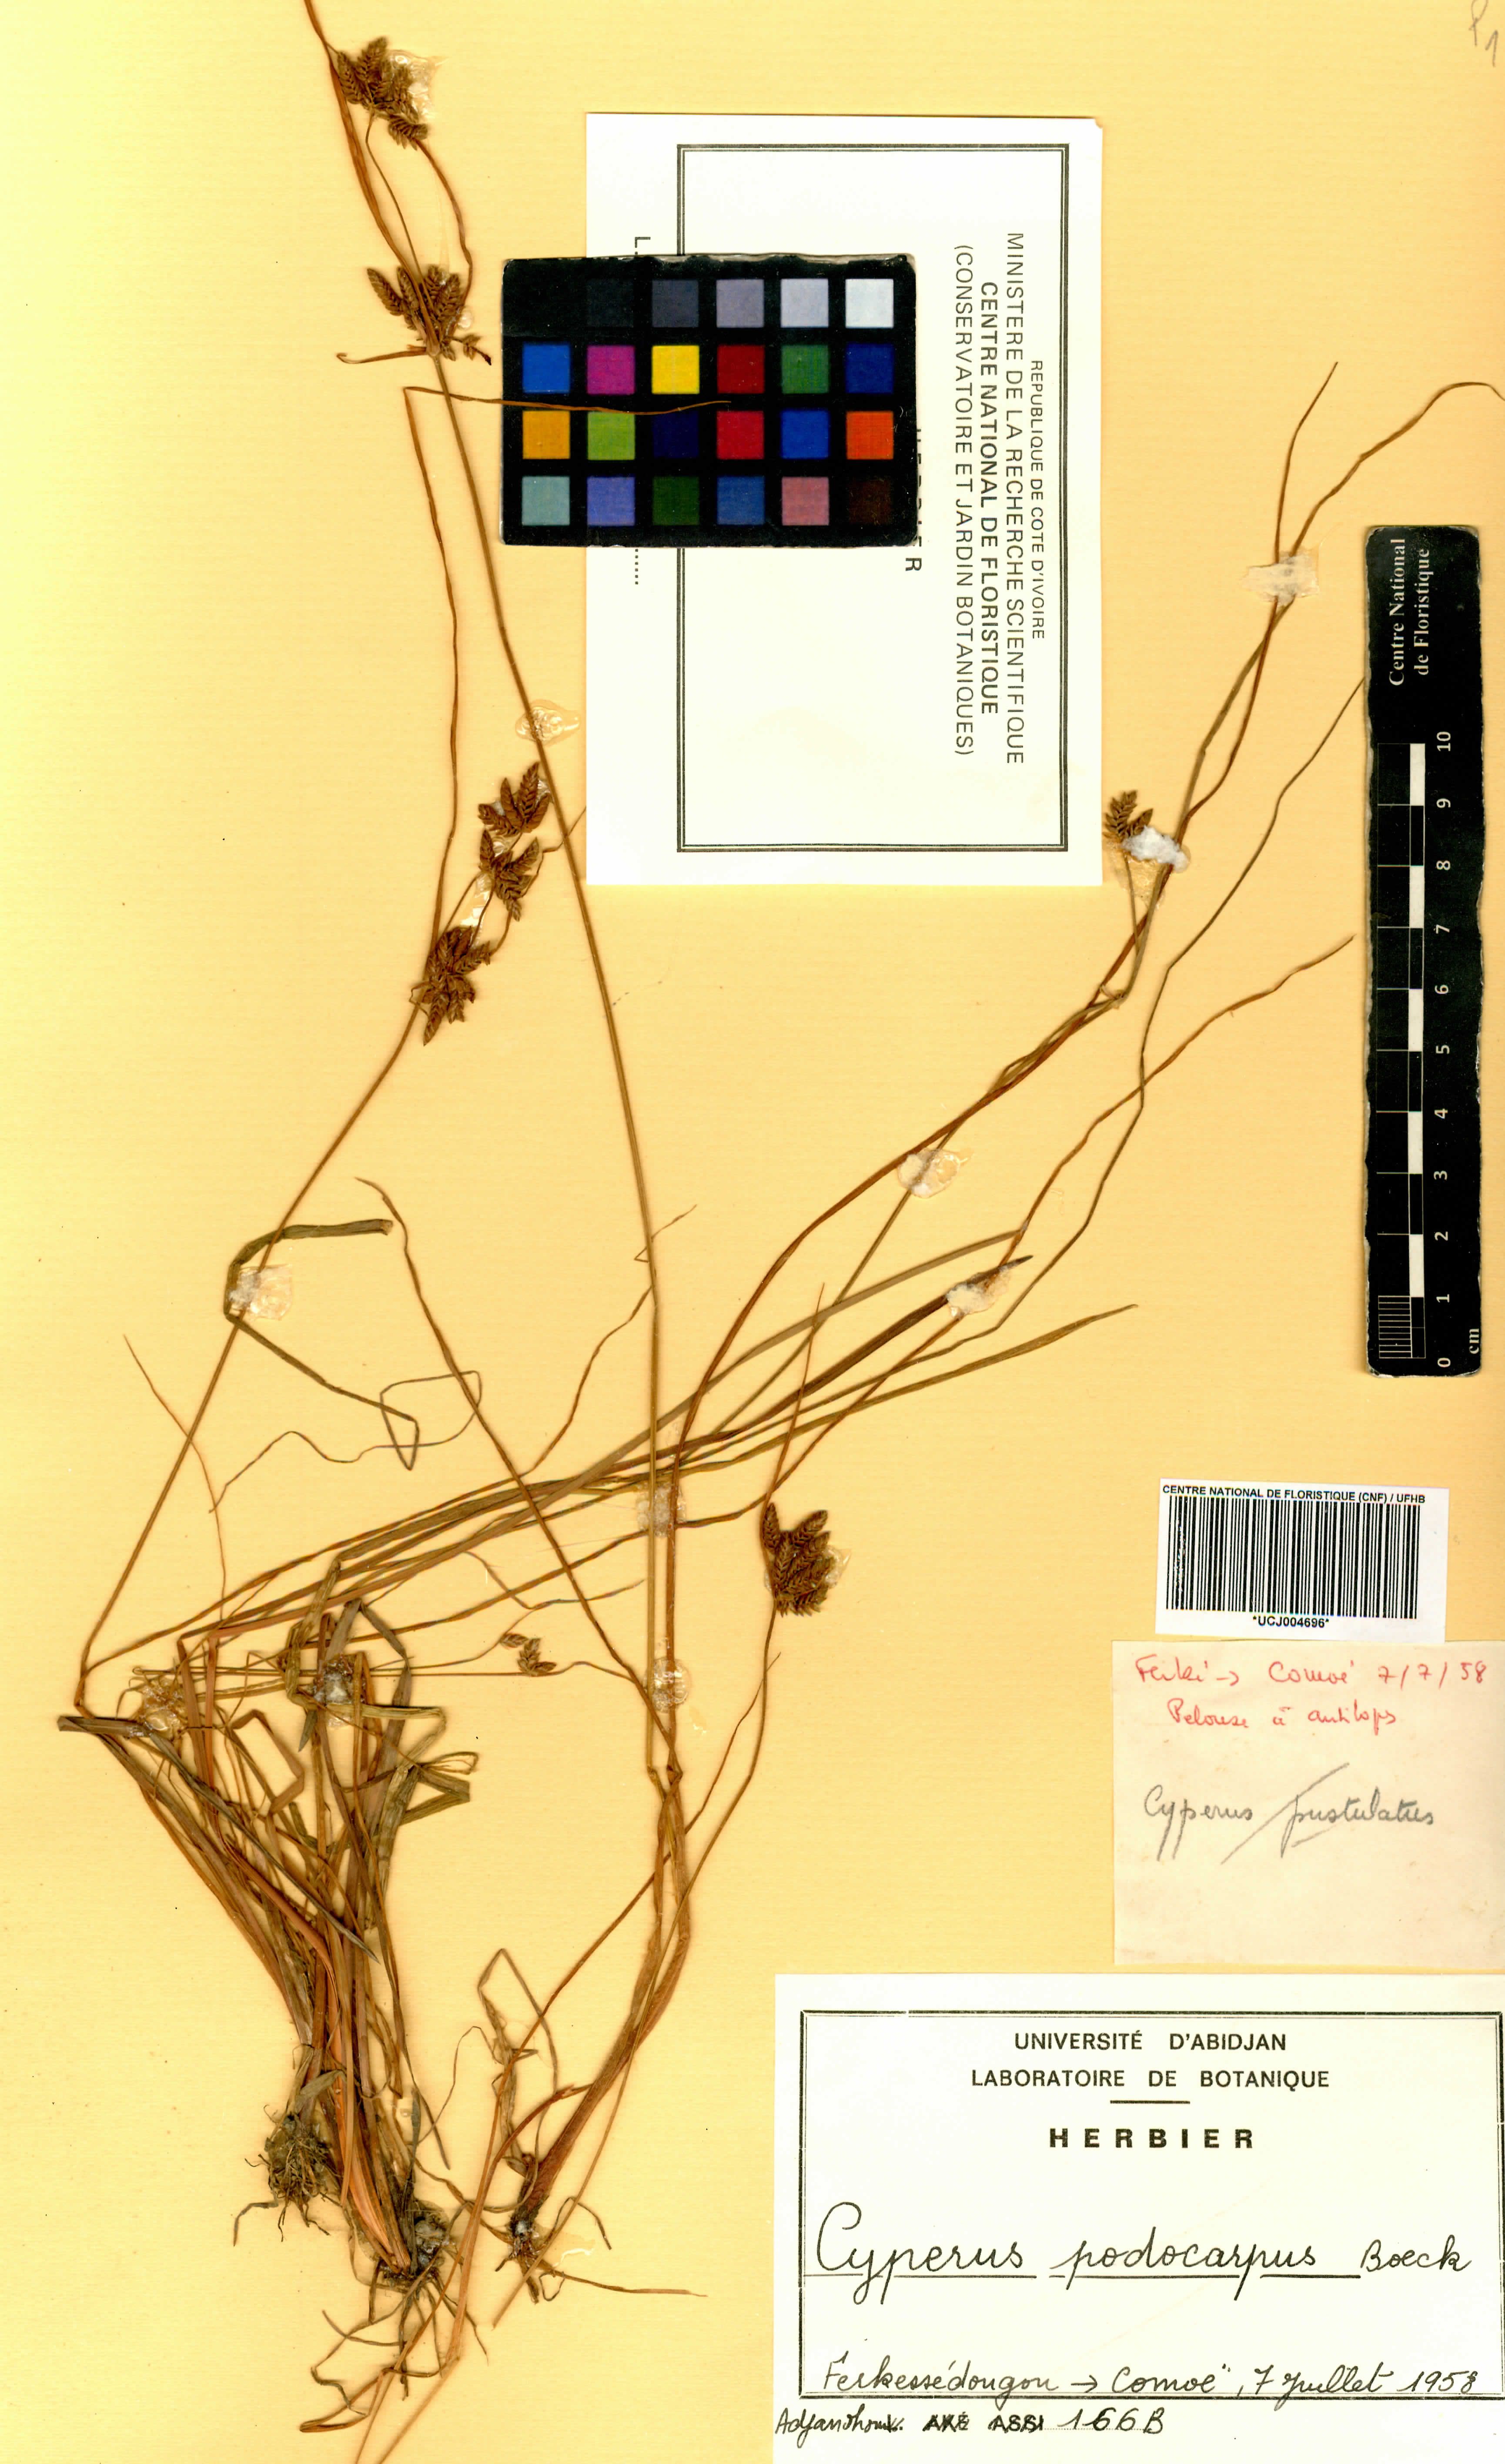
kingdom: Plantae
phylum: Tracheophyta
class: Liliopsida
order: Poales
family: Cyperaceae
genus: Cyperus
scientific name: Cyperus podocarpus
